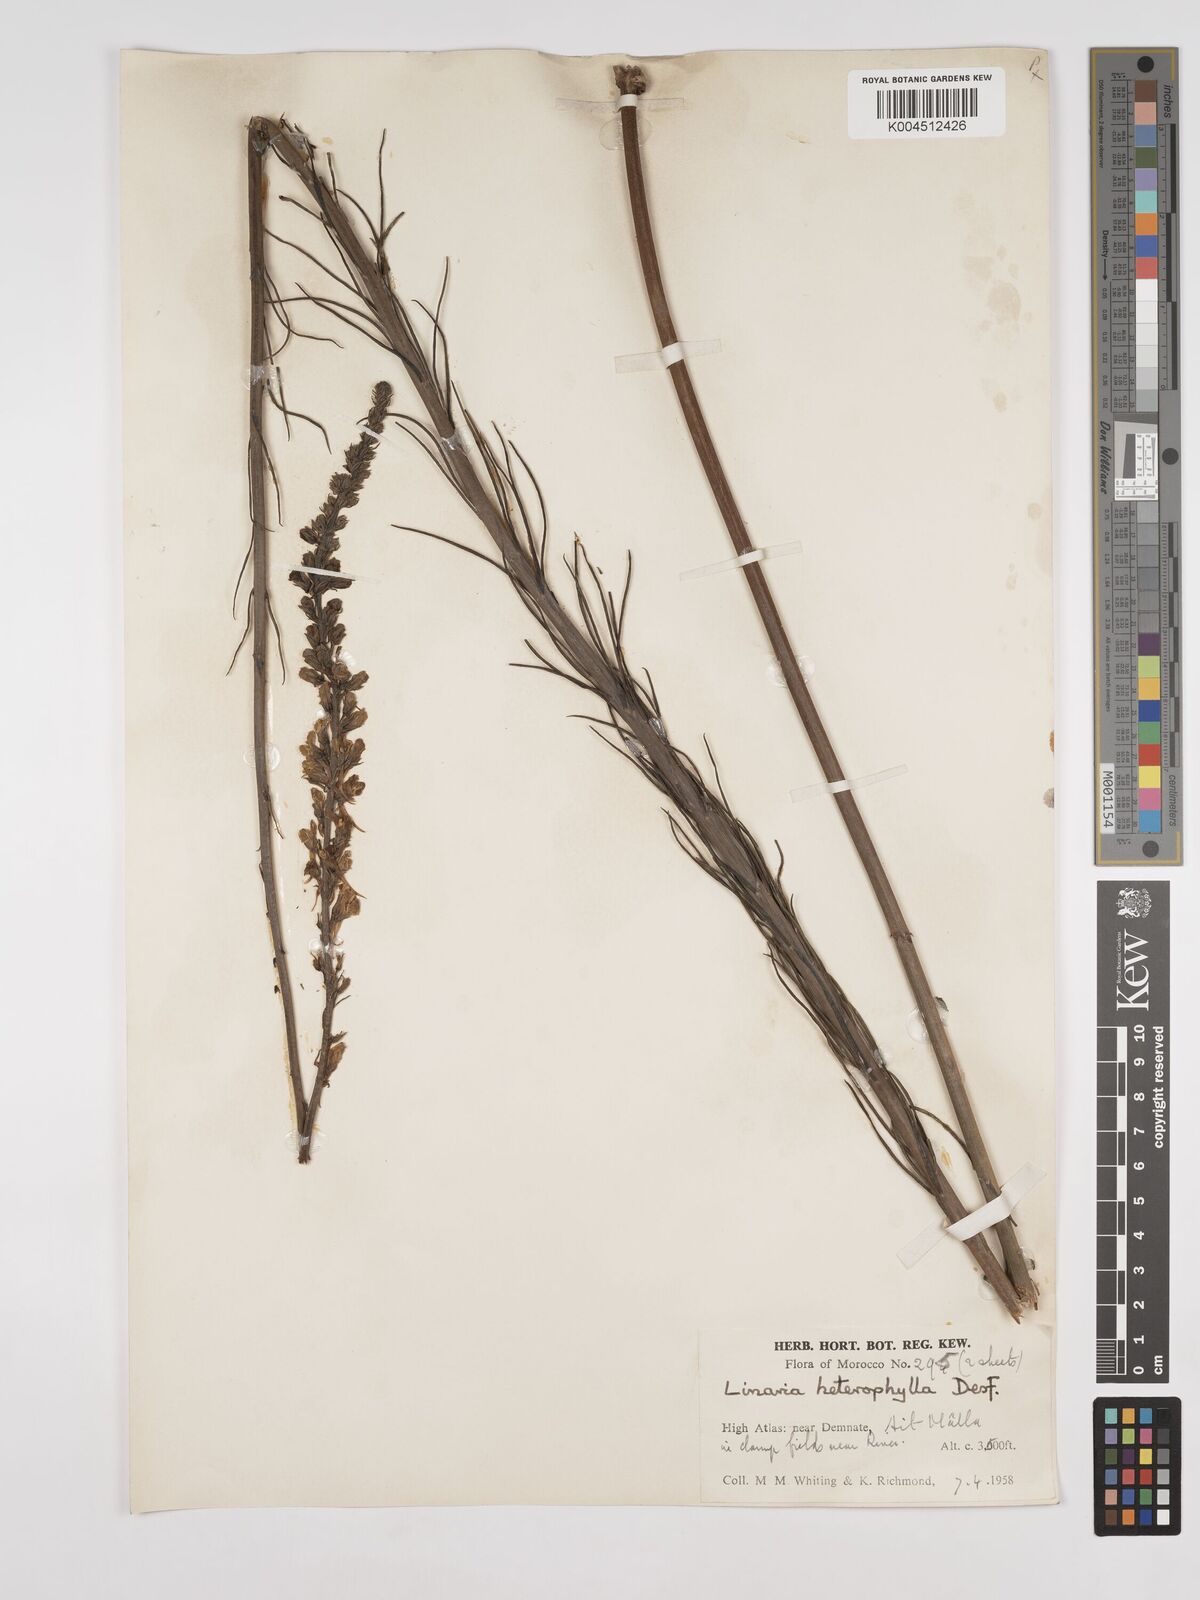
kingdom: Plantae
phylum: Tracheophyta
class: Magnoliopsida
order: Lamiales
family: Plantaginaceae
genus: Linaria
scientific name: Linaria multicaulis
